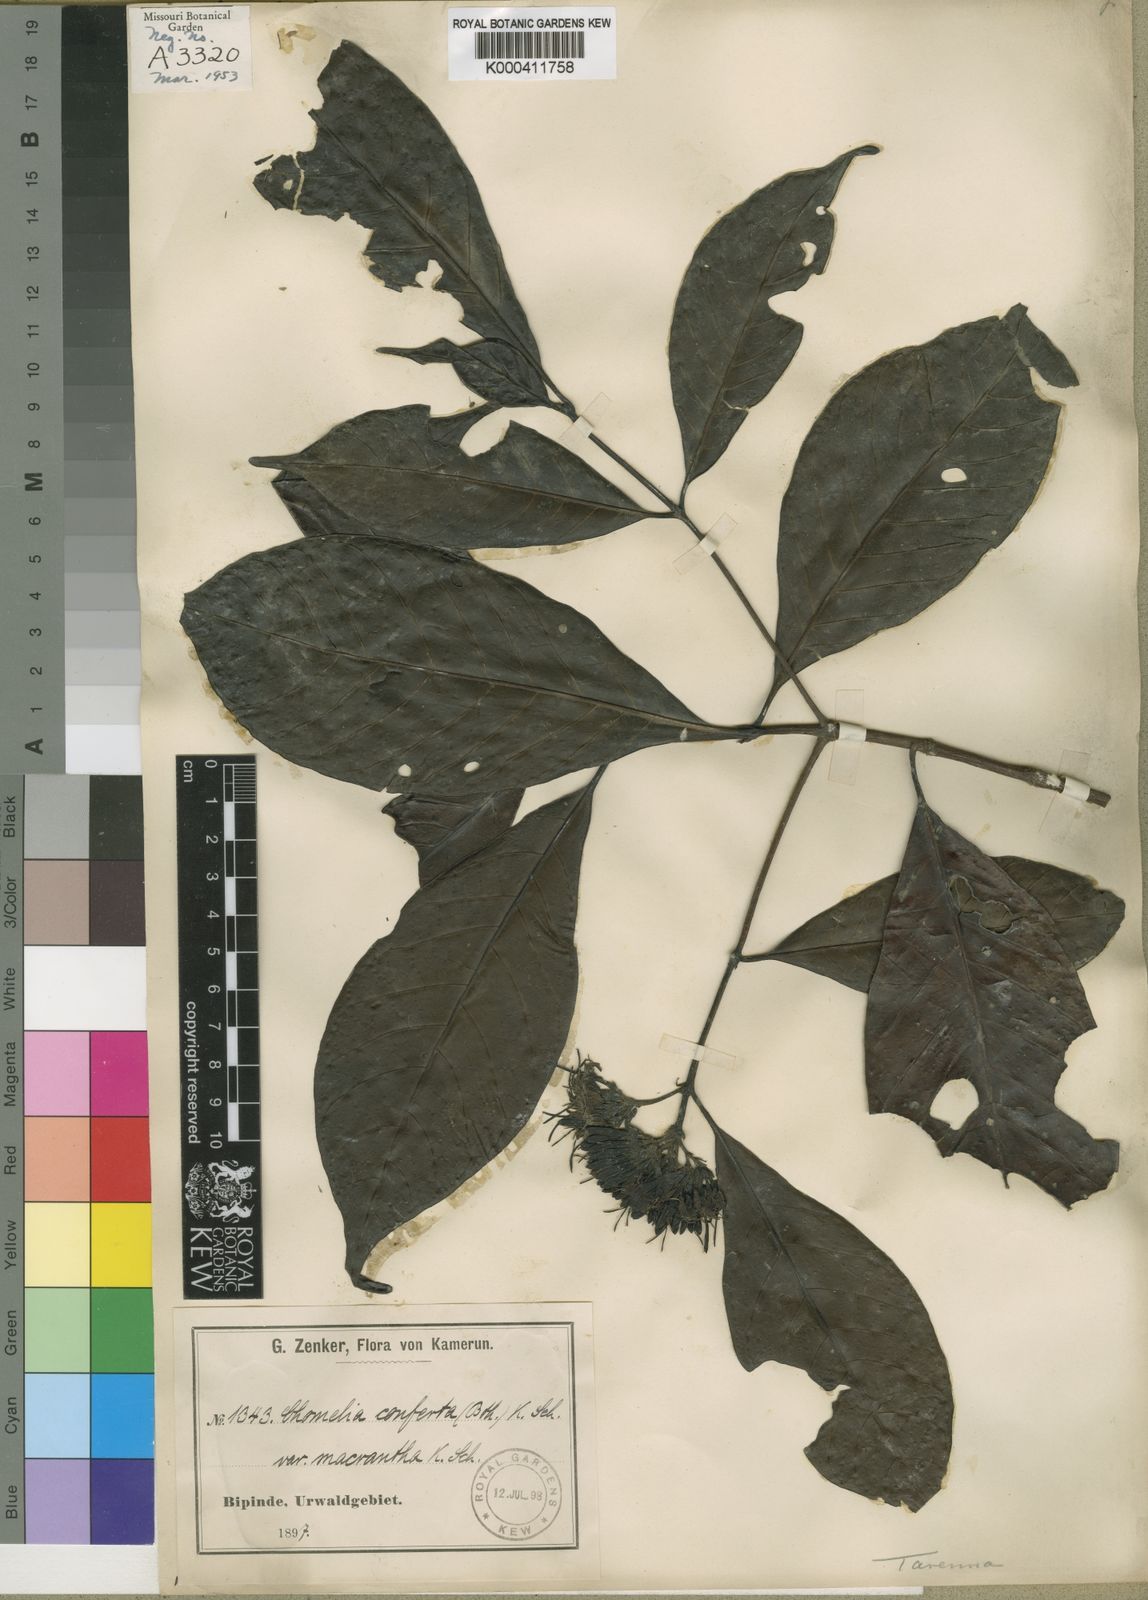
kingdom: Plantae
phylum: Tracheophyta
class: Magnoliopsida
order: Gentianales
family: Rubiaceae
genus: Tarenna
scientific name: Tarenna conferta
